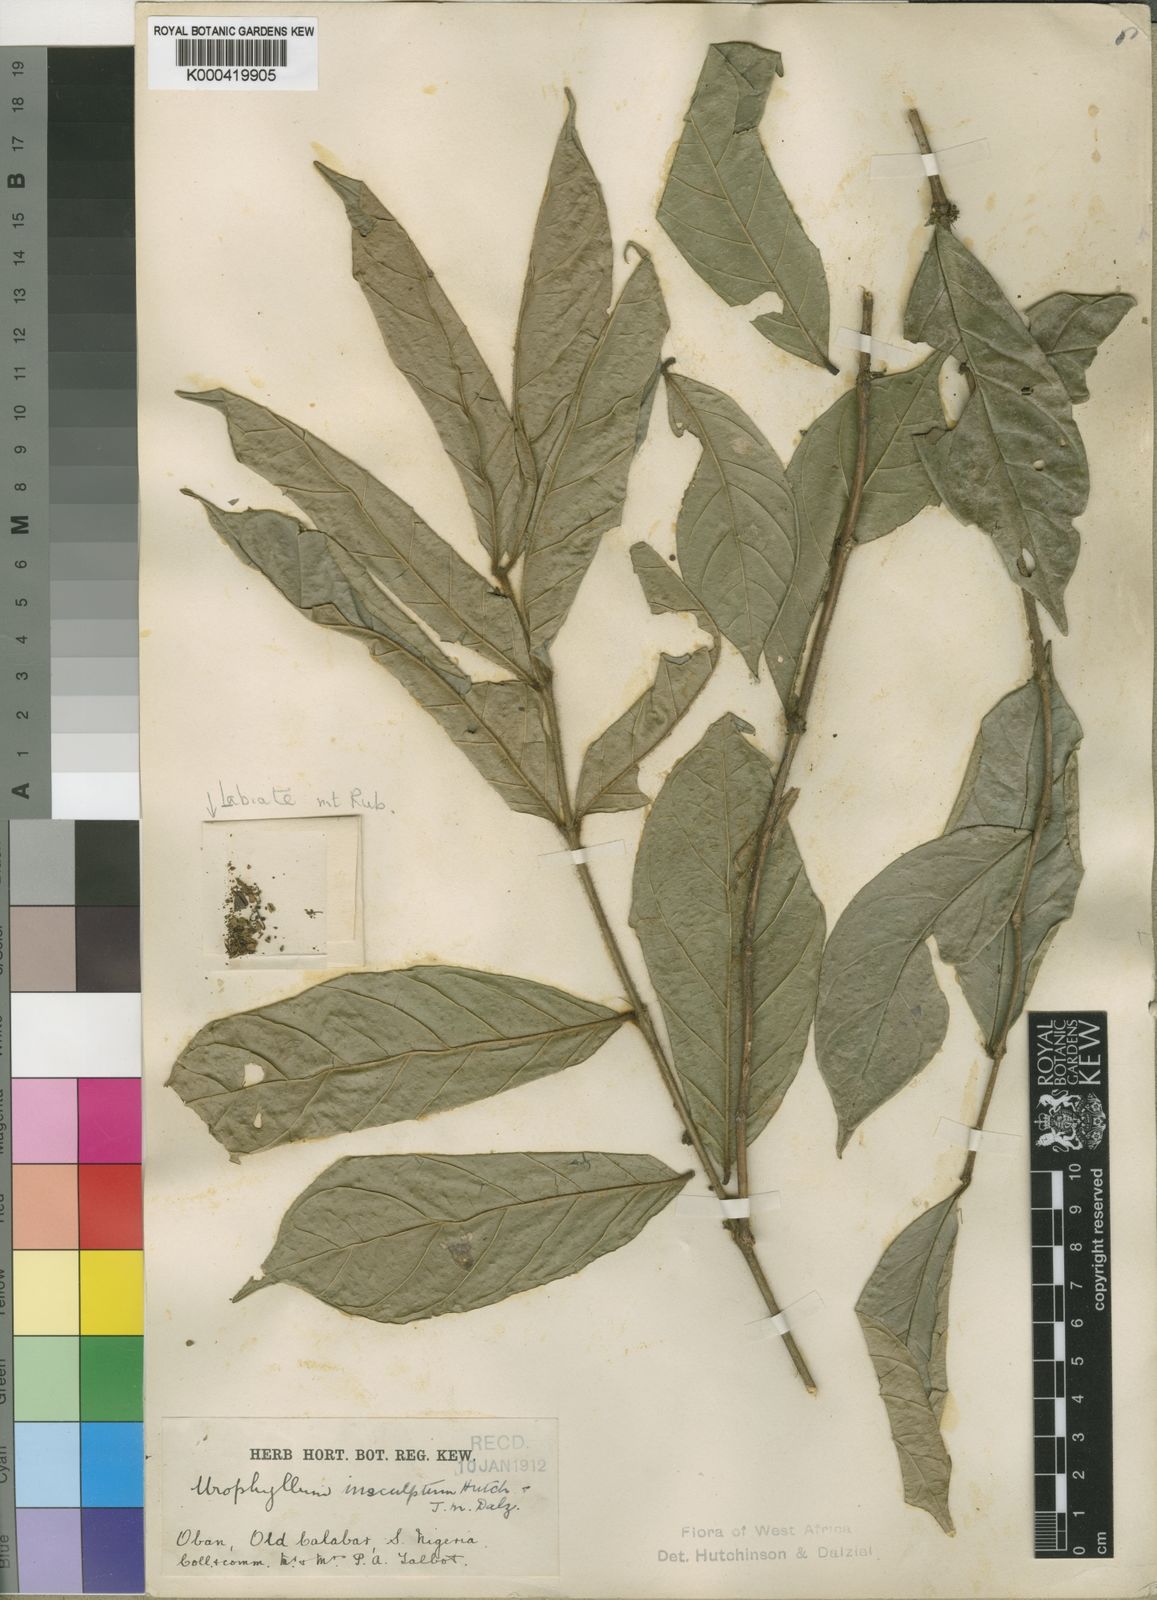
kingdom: Plantae
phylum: Tracheophyta
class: Magnoliopsida
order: Gentianales
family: Rubiaceae
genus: Empogona
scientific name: Empogona talbotii
